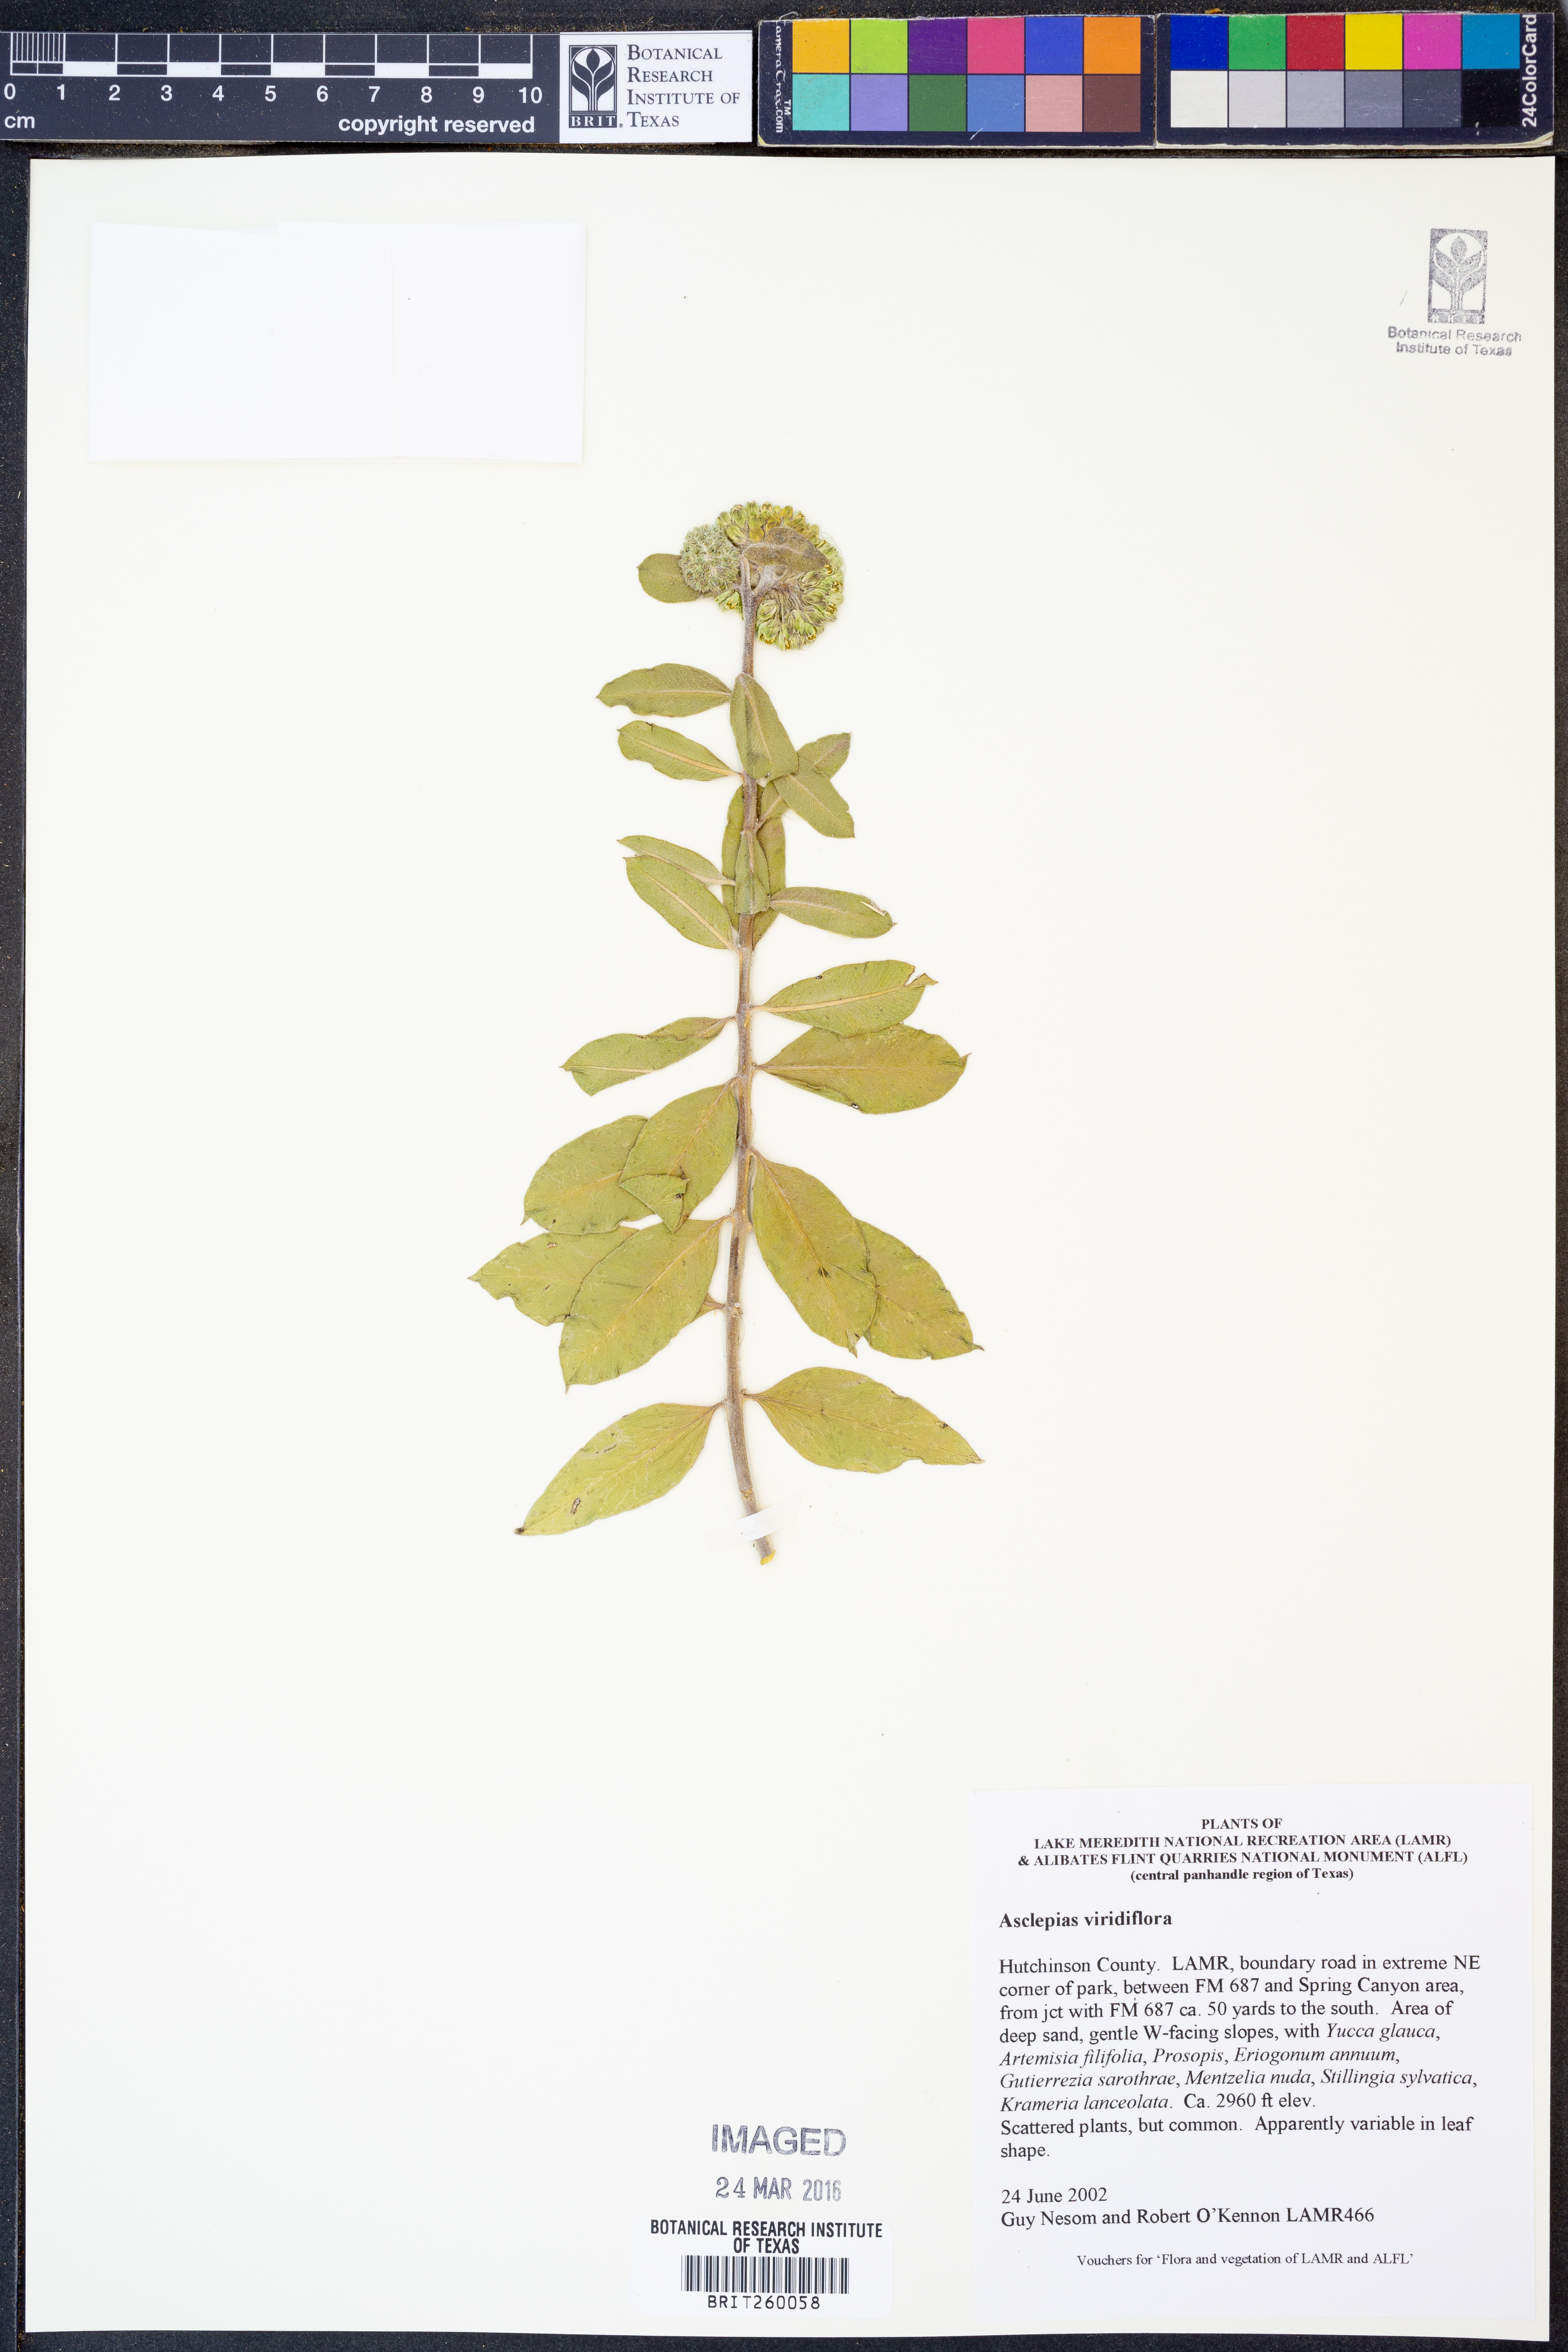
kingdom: Plantae
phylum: Tracheophyta
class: Magnoliopsida
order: Gentianales
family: Apocynaceae
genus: Asclepias
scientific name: Asclepias viridiflora
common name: Green comet milkweed
